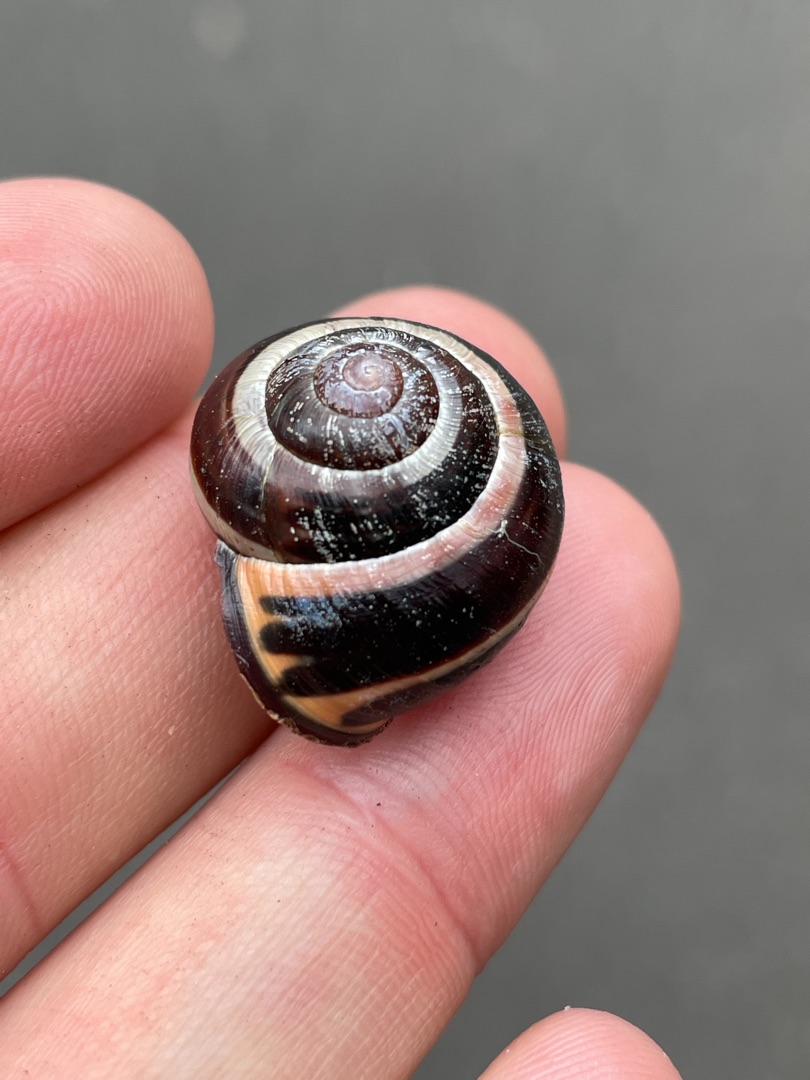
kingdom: Animalia
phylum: Mollusca
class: Gastropoda
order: Stylommatophora
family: Helicidae
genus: Cepaea
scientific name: Cepaea nemoralis
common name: Lundsnegl
